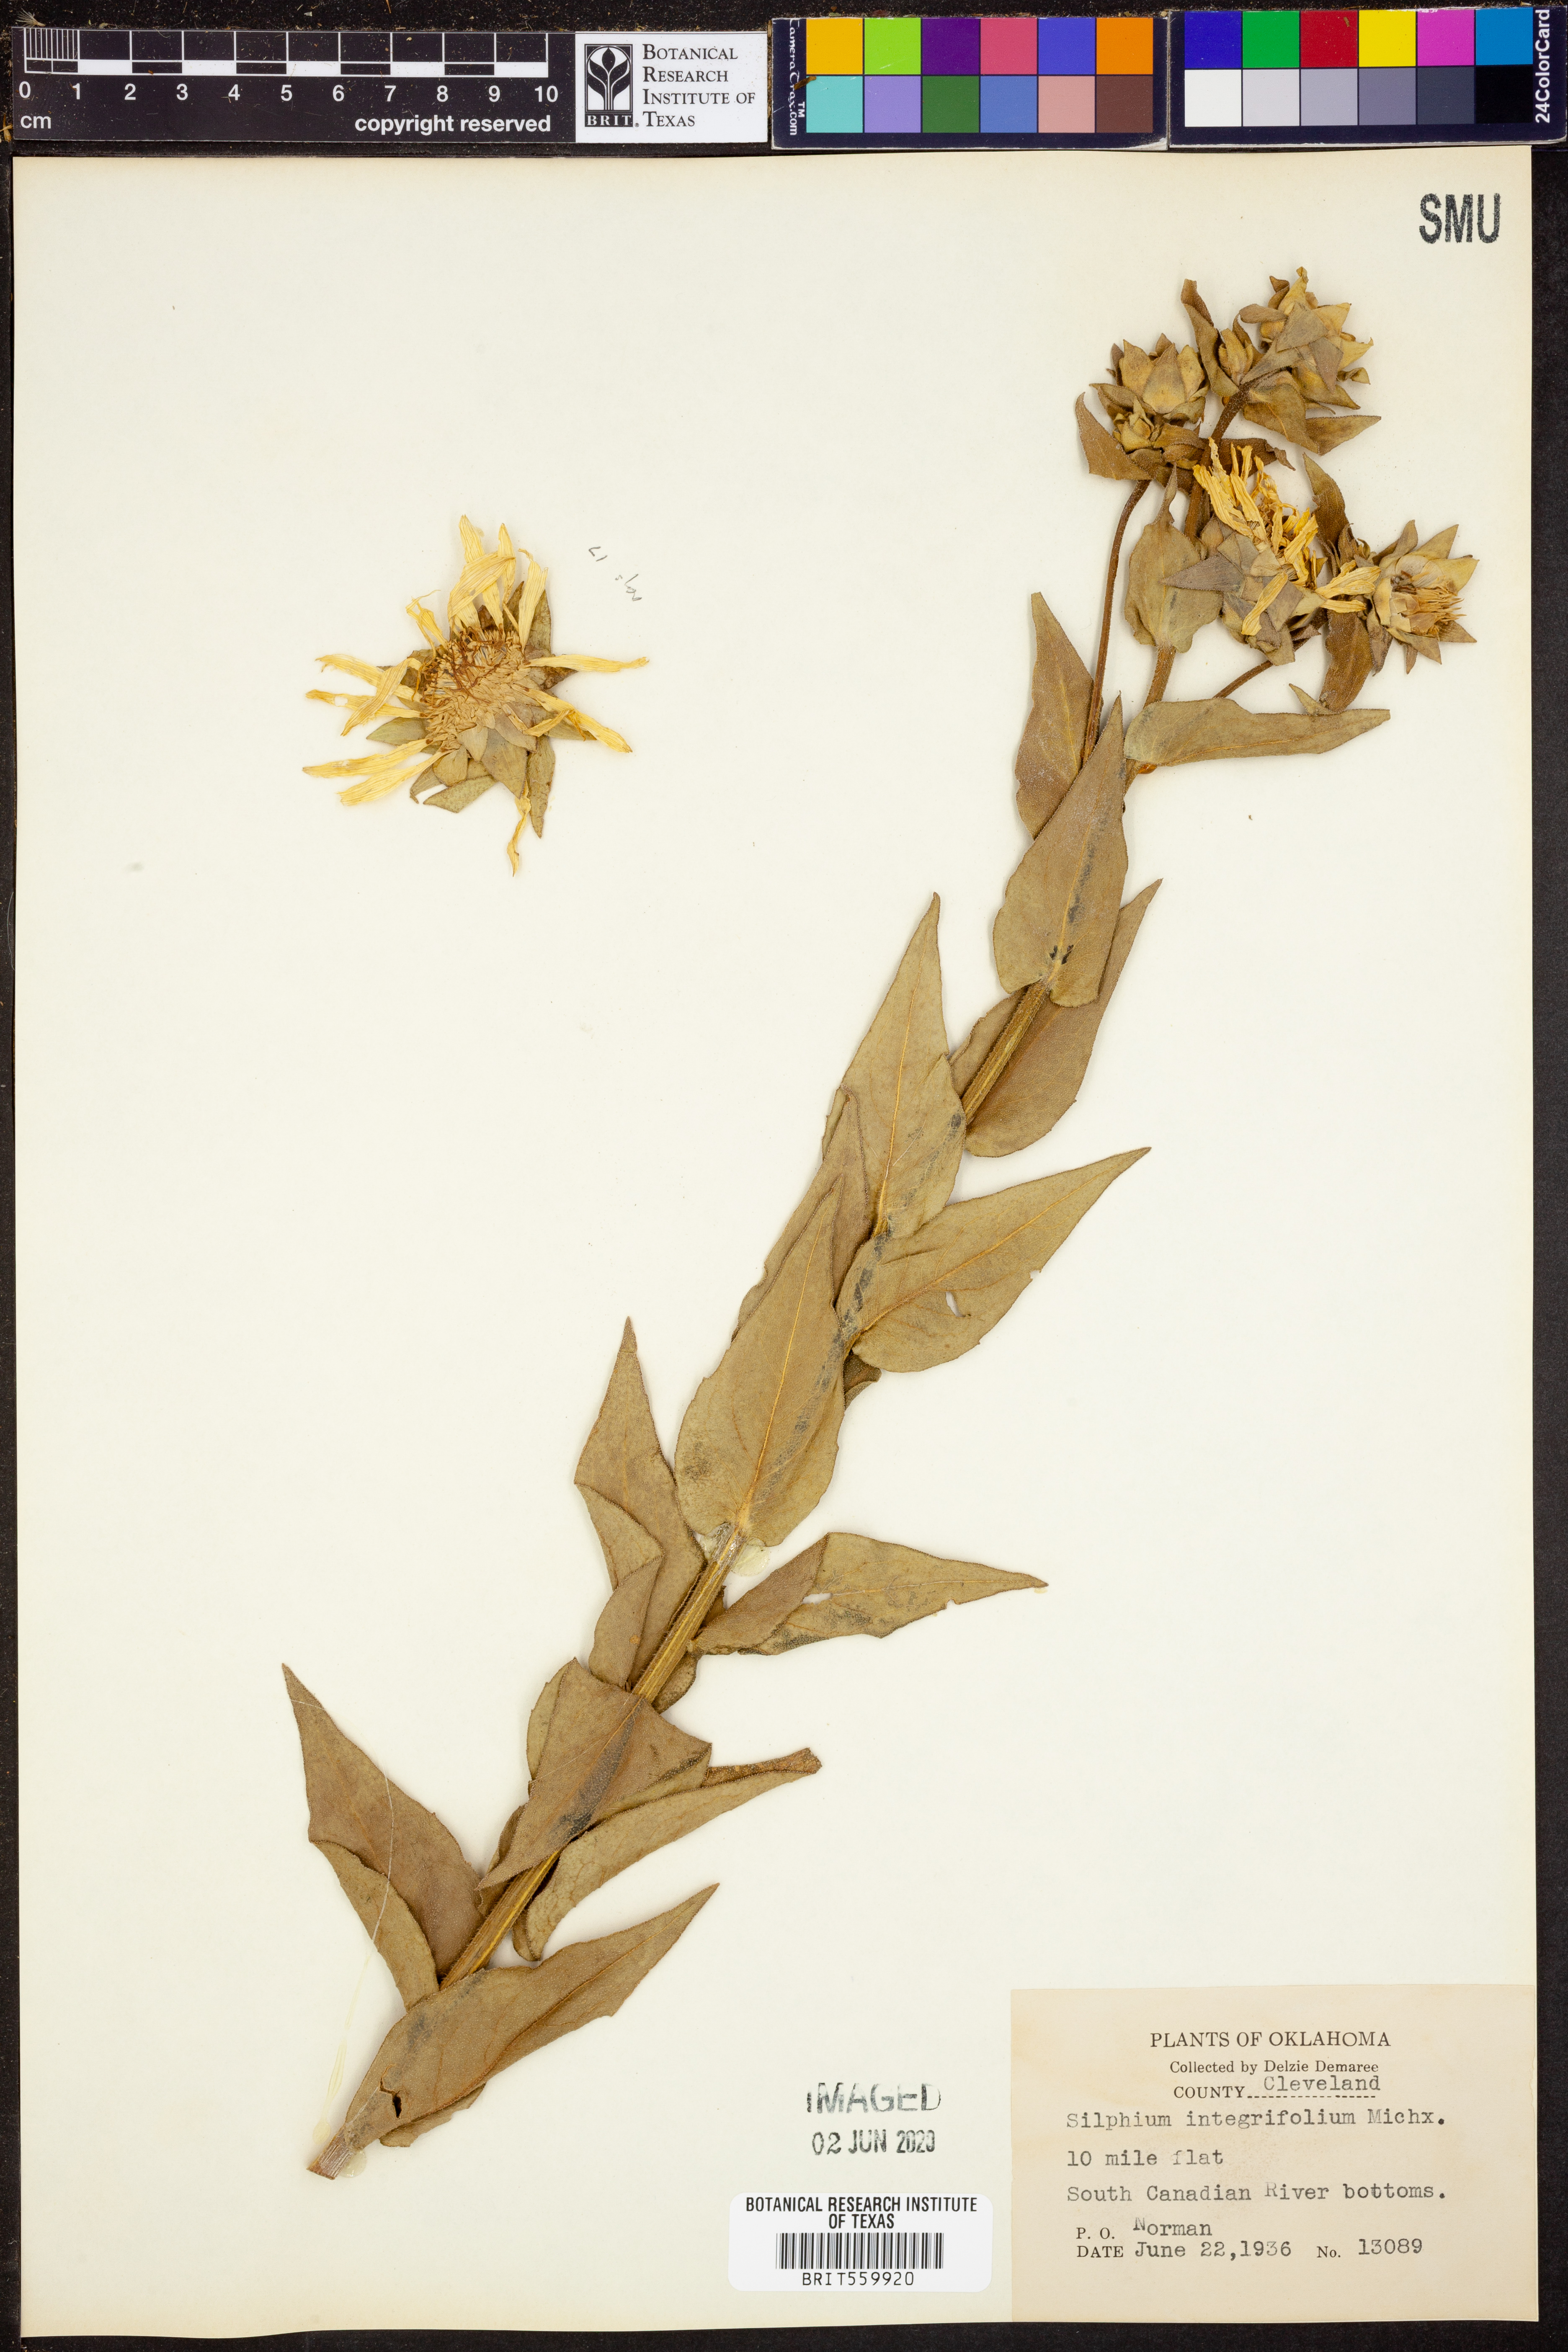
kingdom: Plantae
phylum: Tracheophyta
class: Magnoliopsida
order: Asterales
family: Asteraceae
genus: Silphium
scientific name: Silphium integrifolium
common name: Whole-leaf rosinweed
